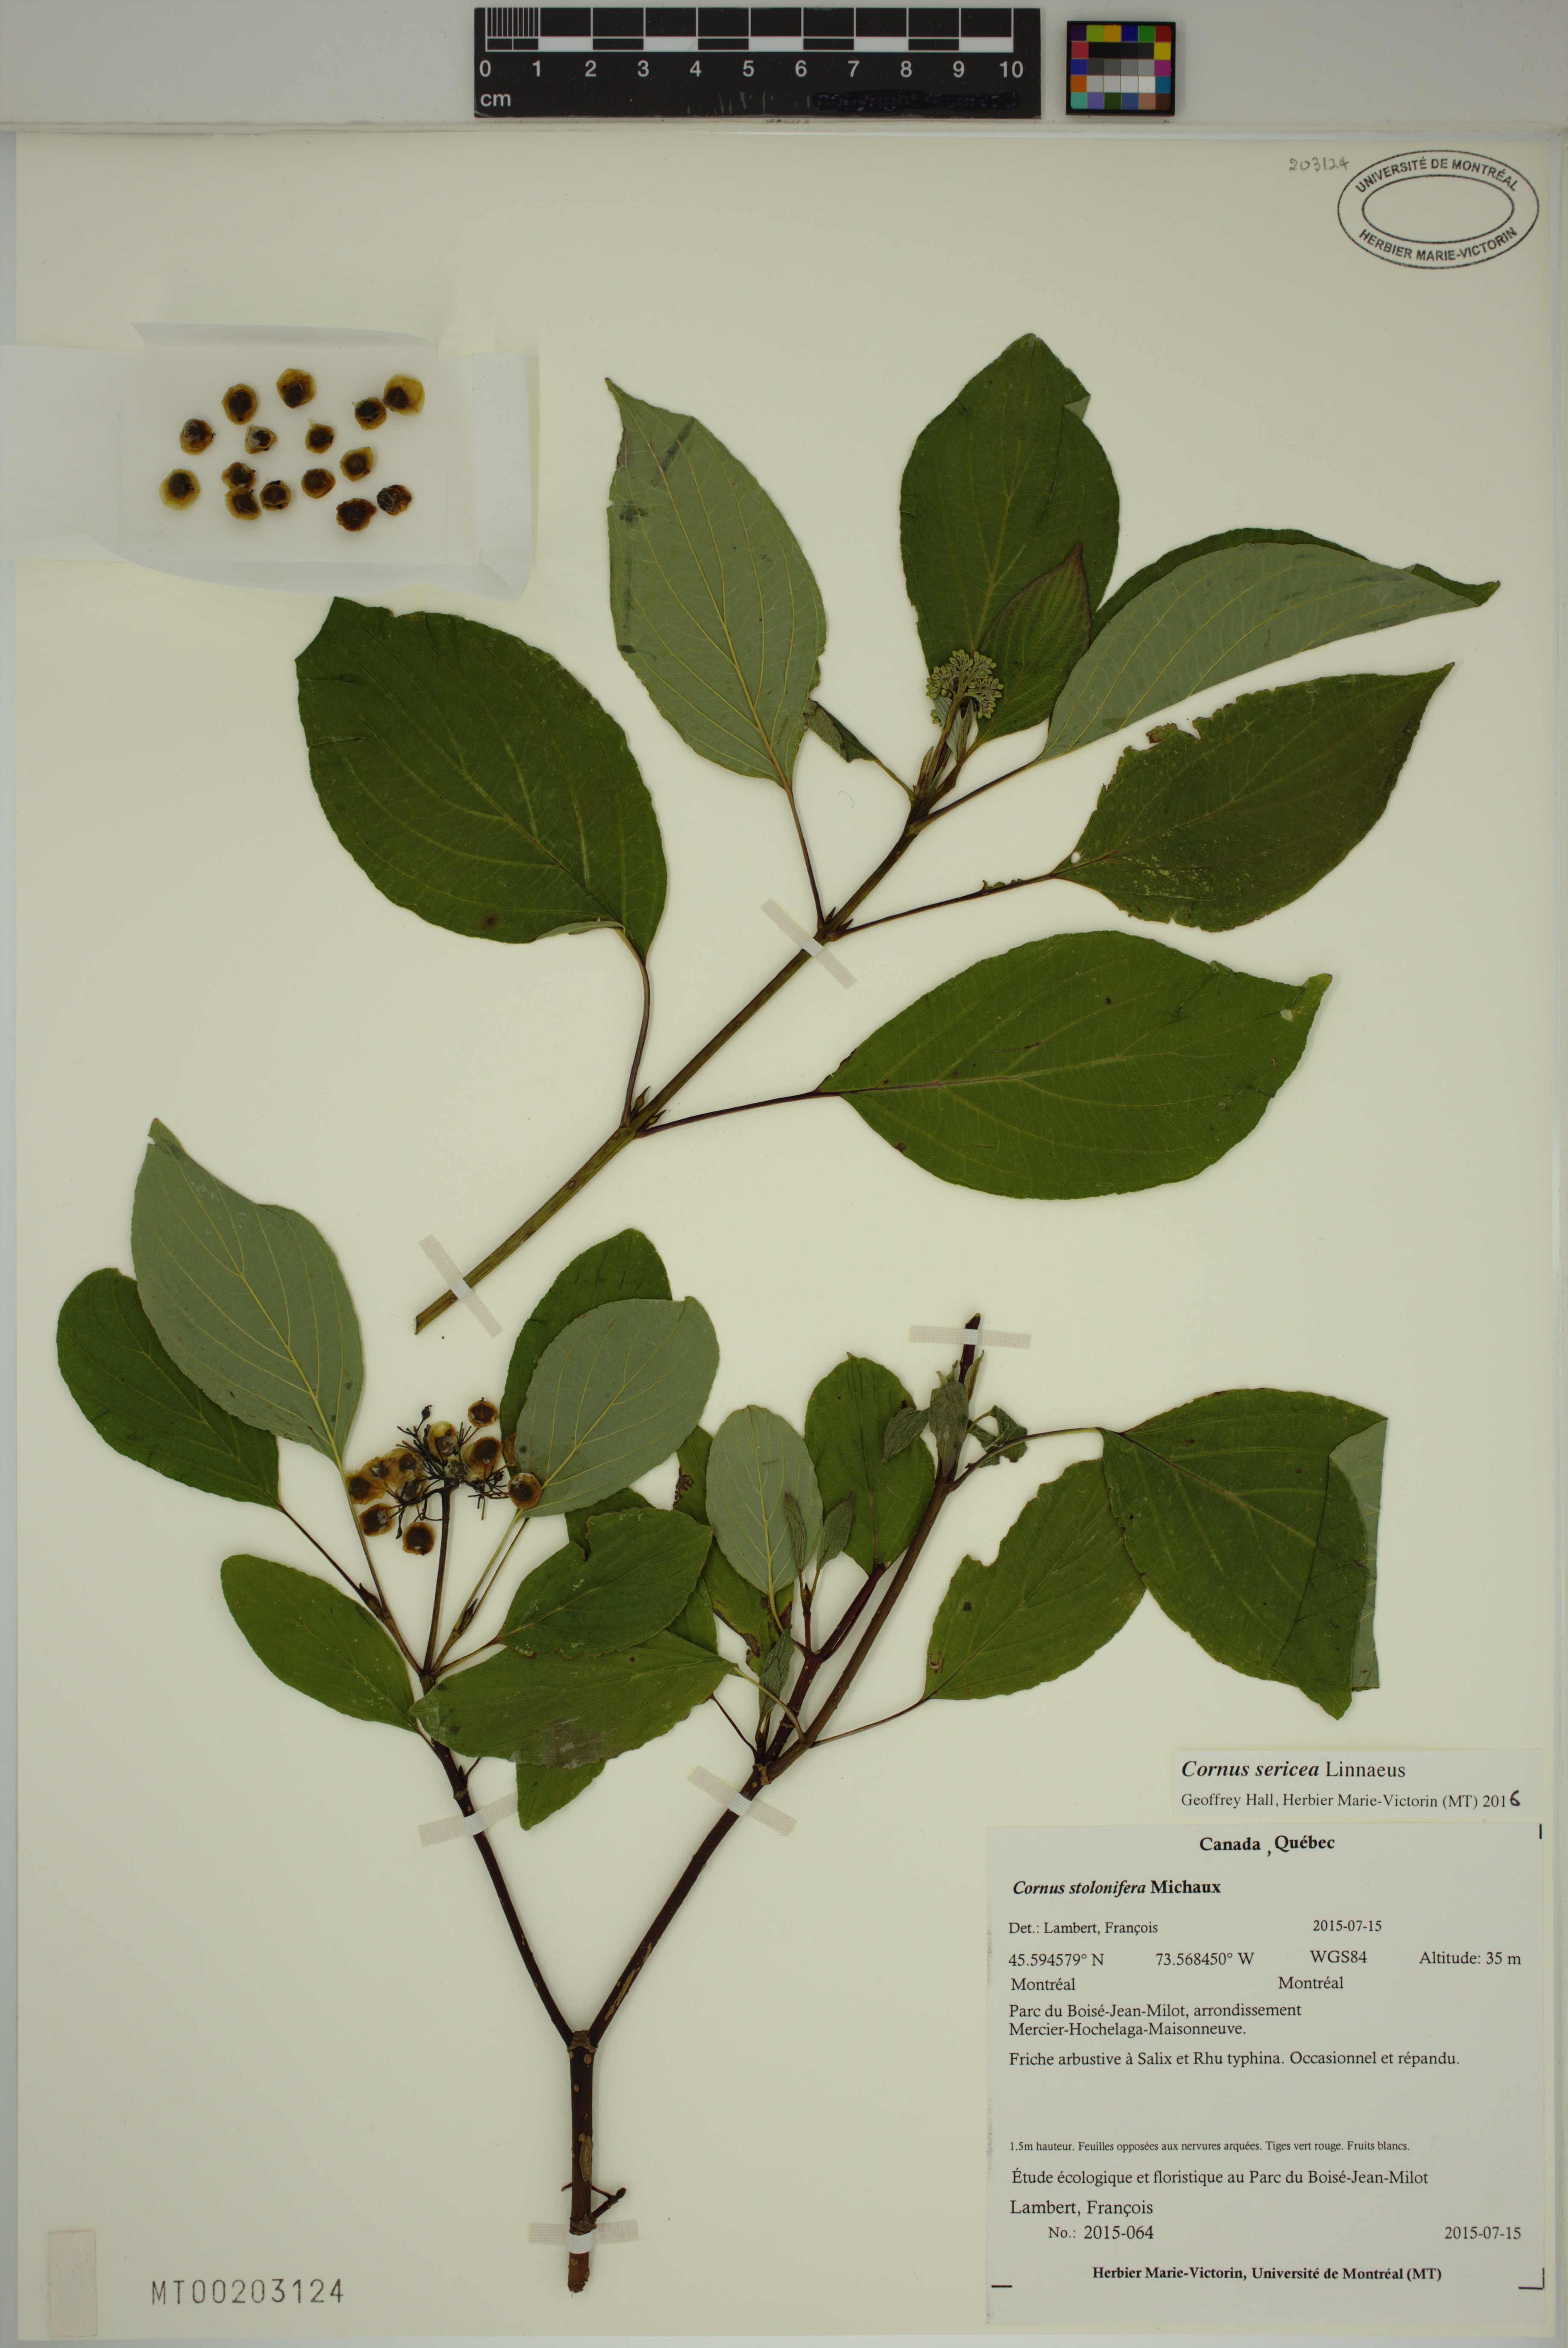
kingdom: Plantae
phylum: Tracheophyta
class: Magnoliopsida
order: Cornales
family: Cornaceae
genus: Cornus
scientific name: Cornus sericea
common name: Red-osier dogwood
